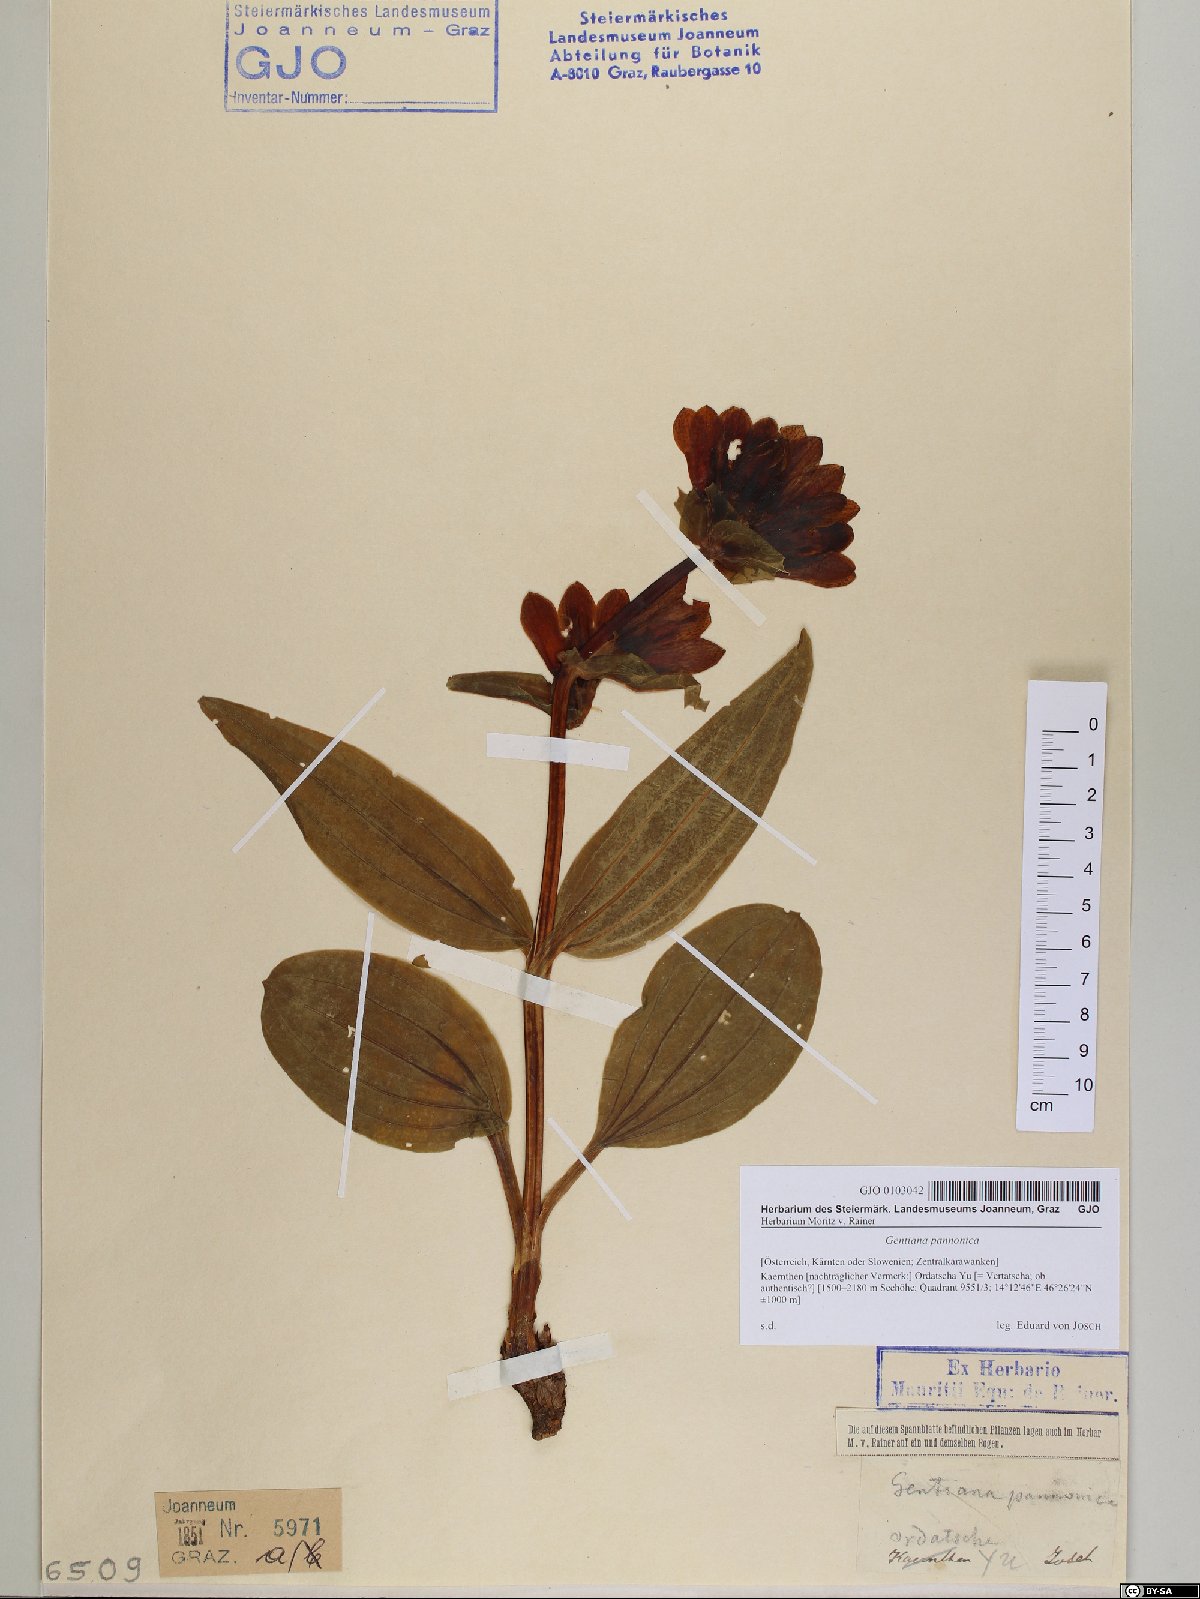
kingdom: Plantae
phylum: Tracheophyta
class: Magnoliopsida
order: Gentianales
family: Gentianaceae
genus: Gentiana
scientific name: Gentiana pannonica
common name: Hungarian gentian
